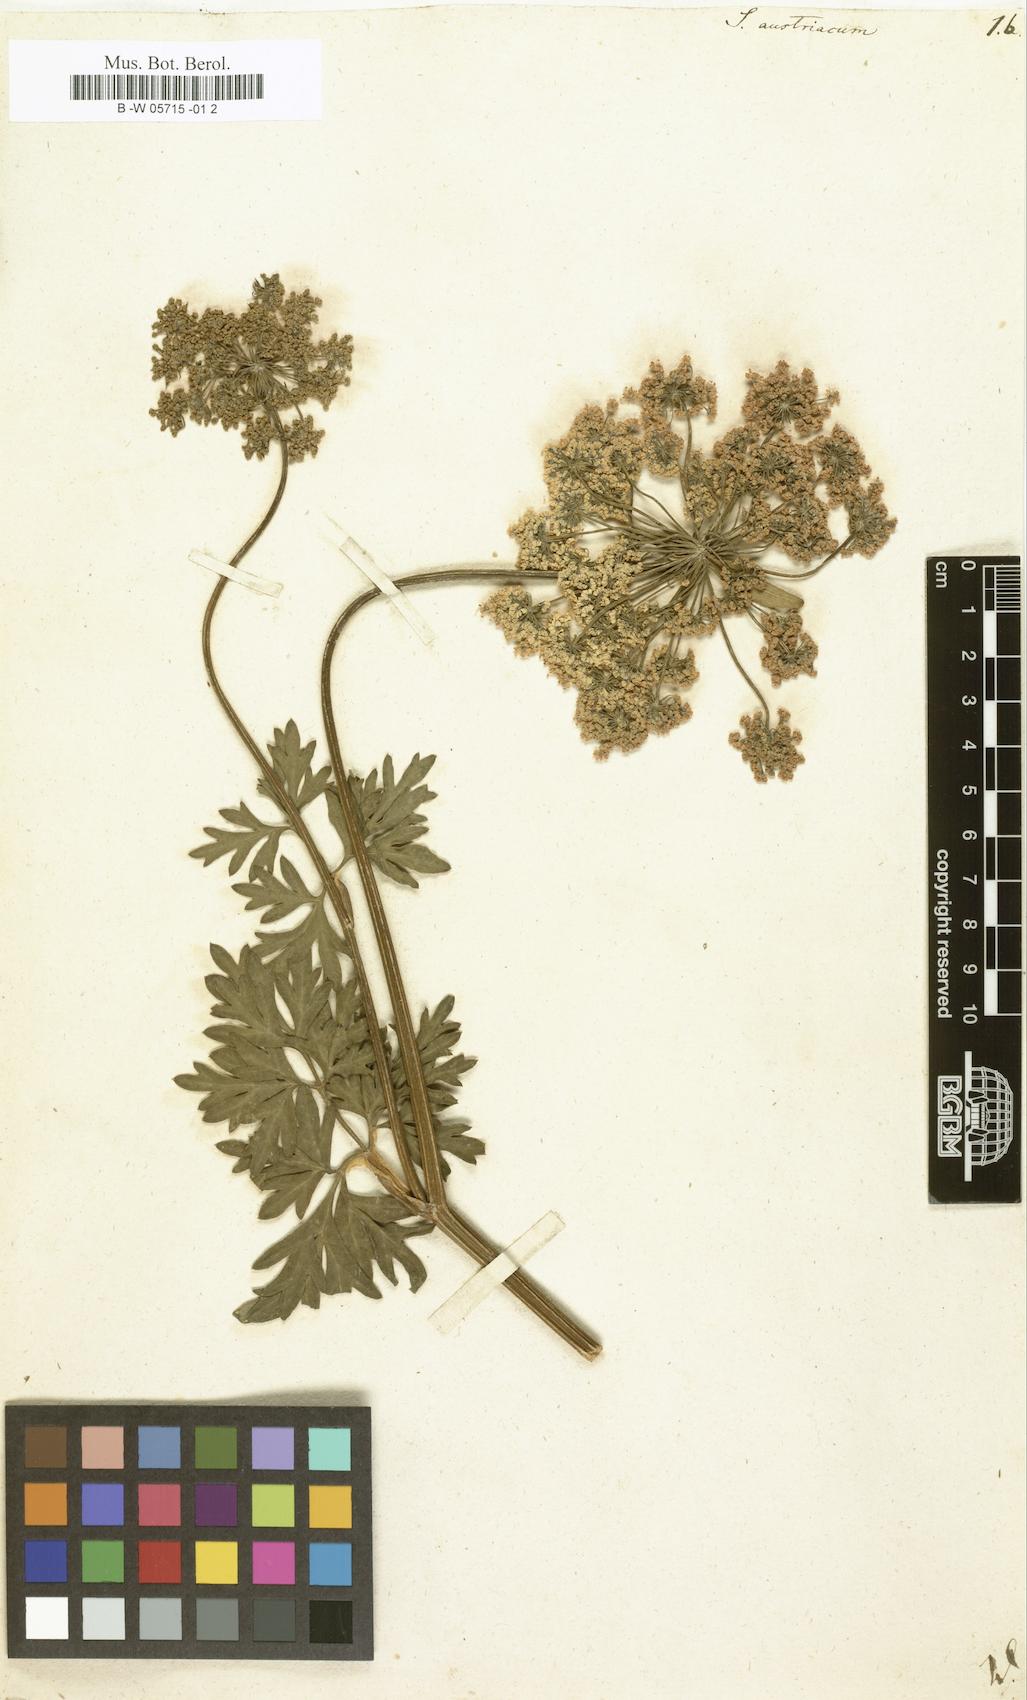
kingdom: Plantae
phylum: Tracheophyta
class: Magnoliopsida
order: Apiales
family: Apiaceae
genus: Selinum
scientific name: Selinum austriacum
